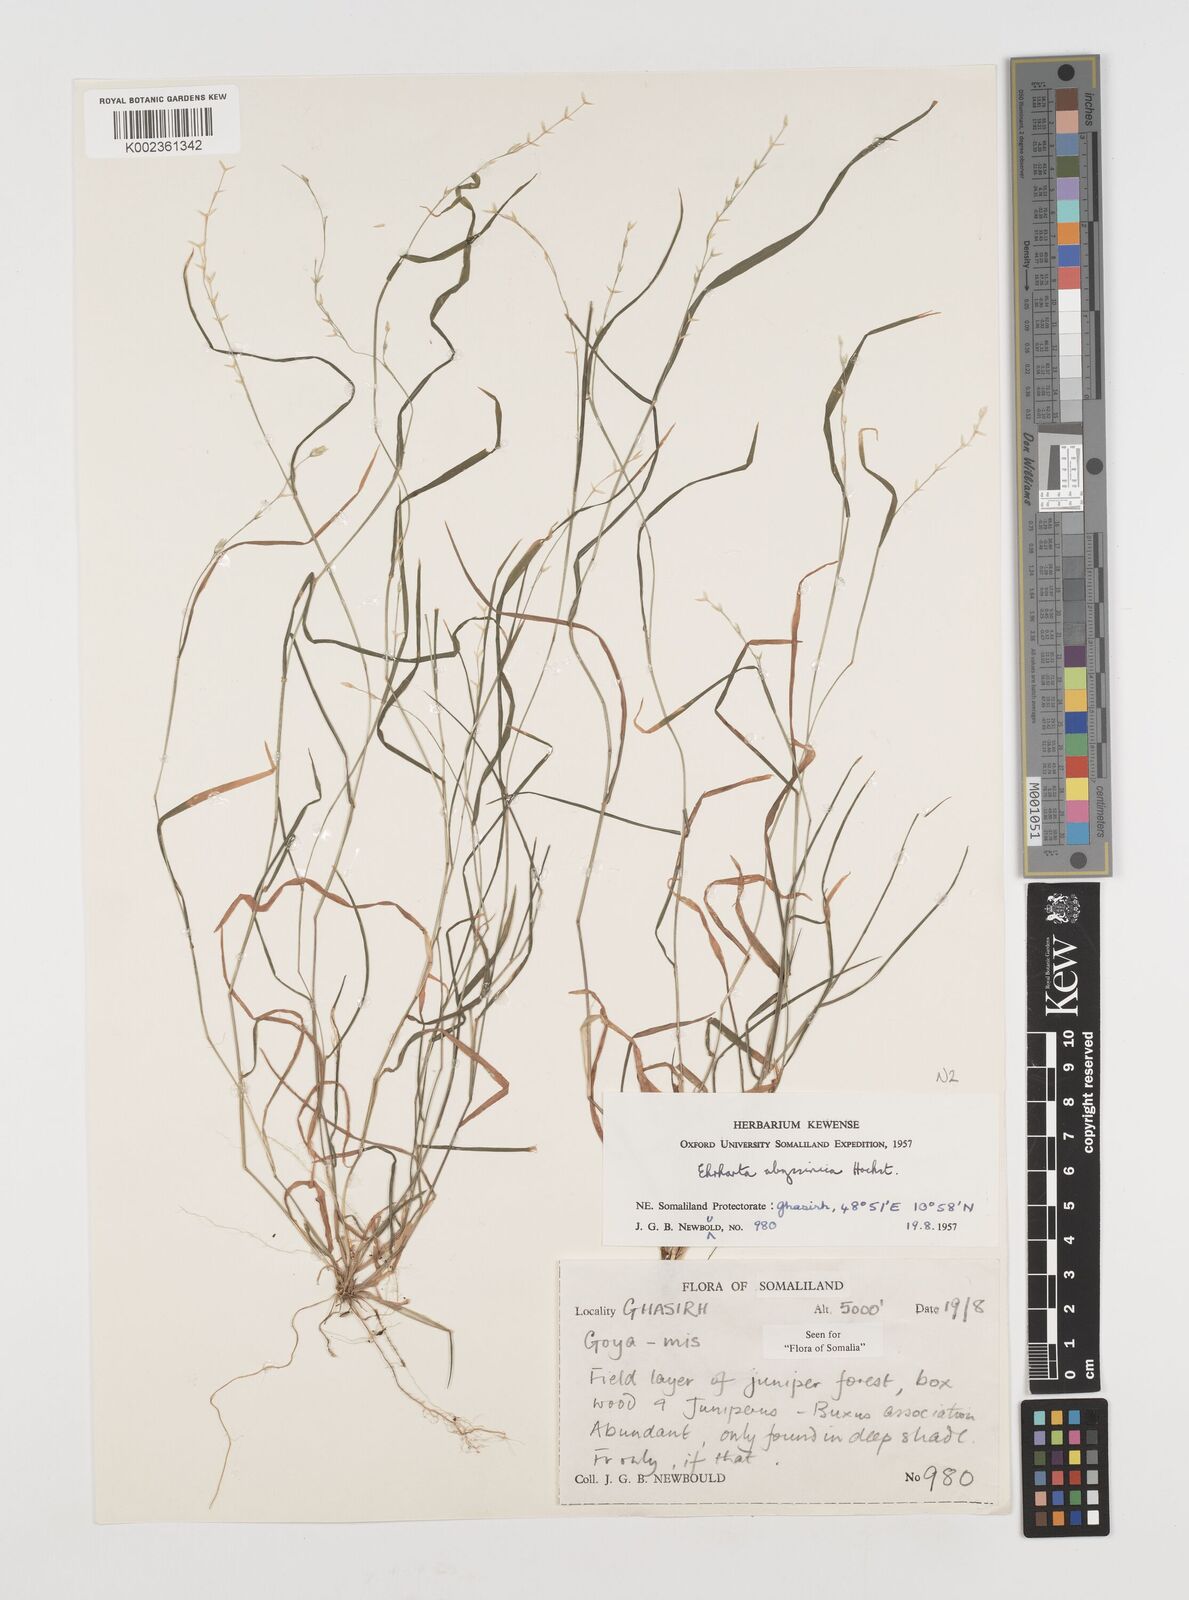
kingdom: Plantae
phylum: Tracheophyta
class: Liliopsida
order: Poales
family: Poaceae
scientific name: Poaceae
